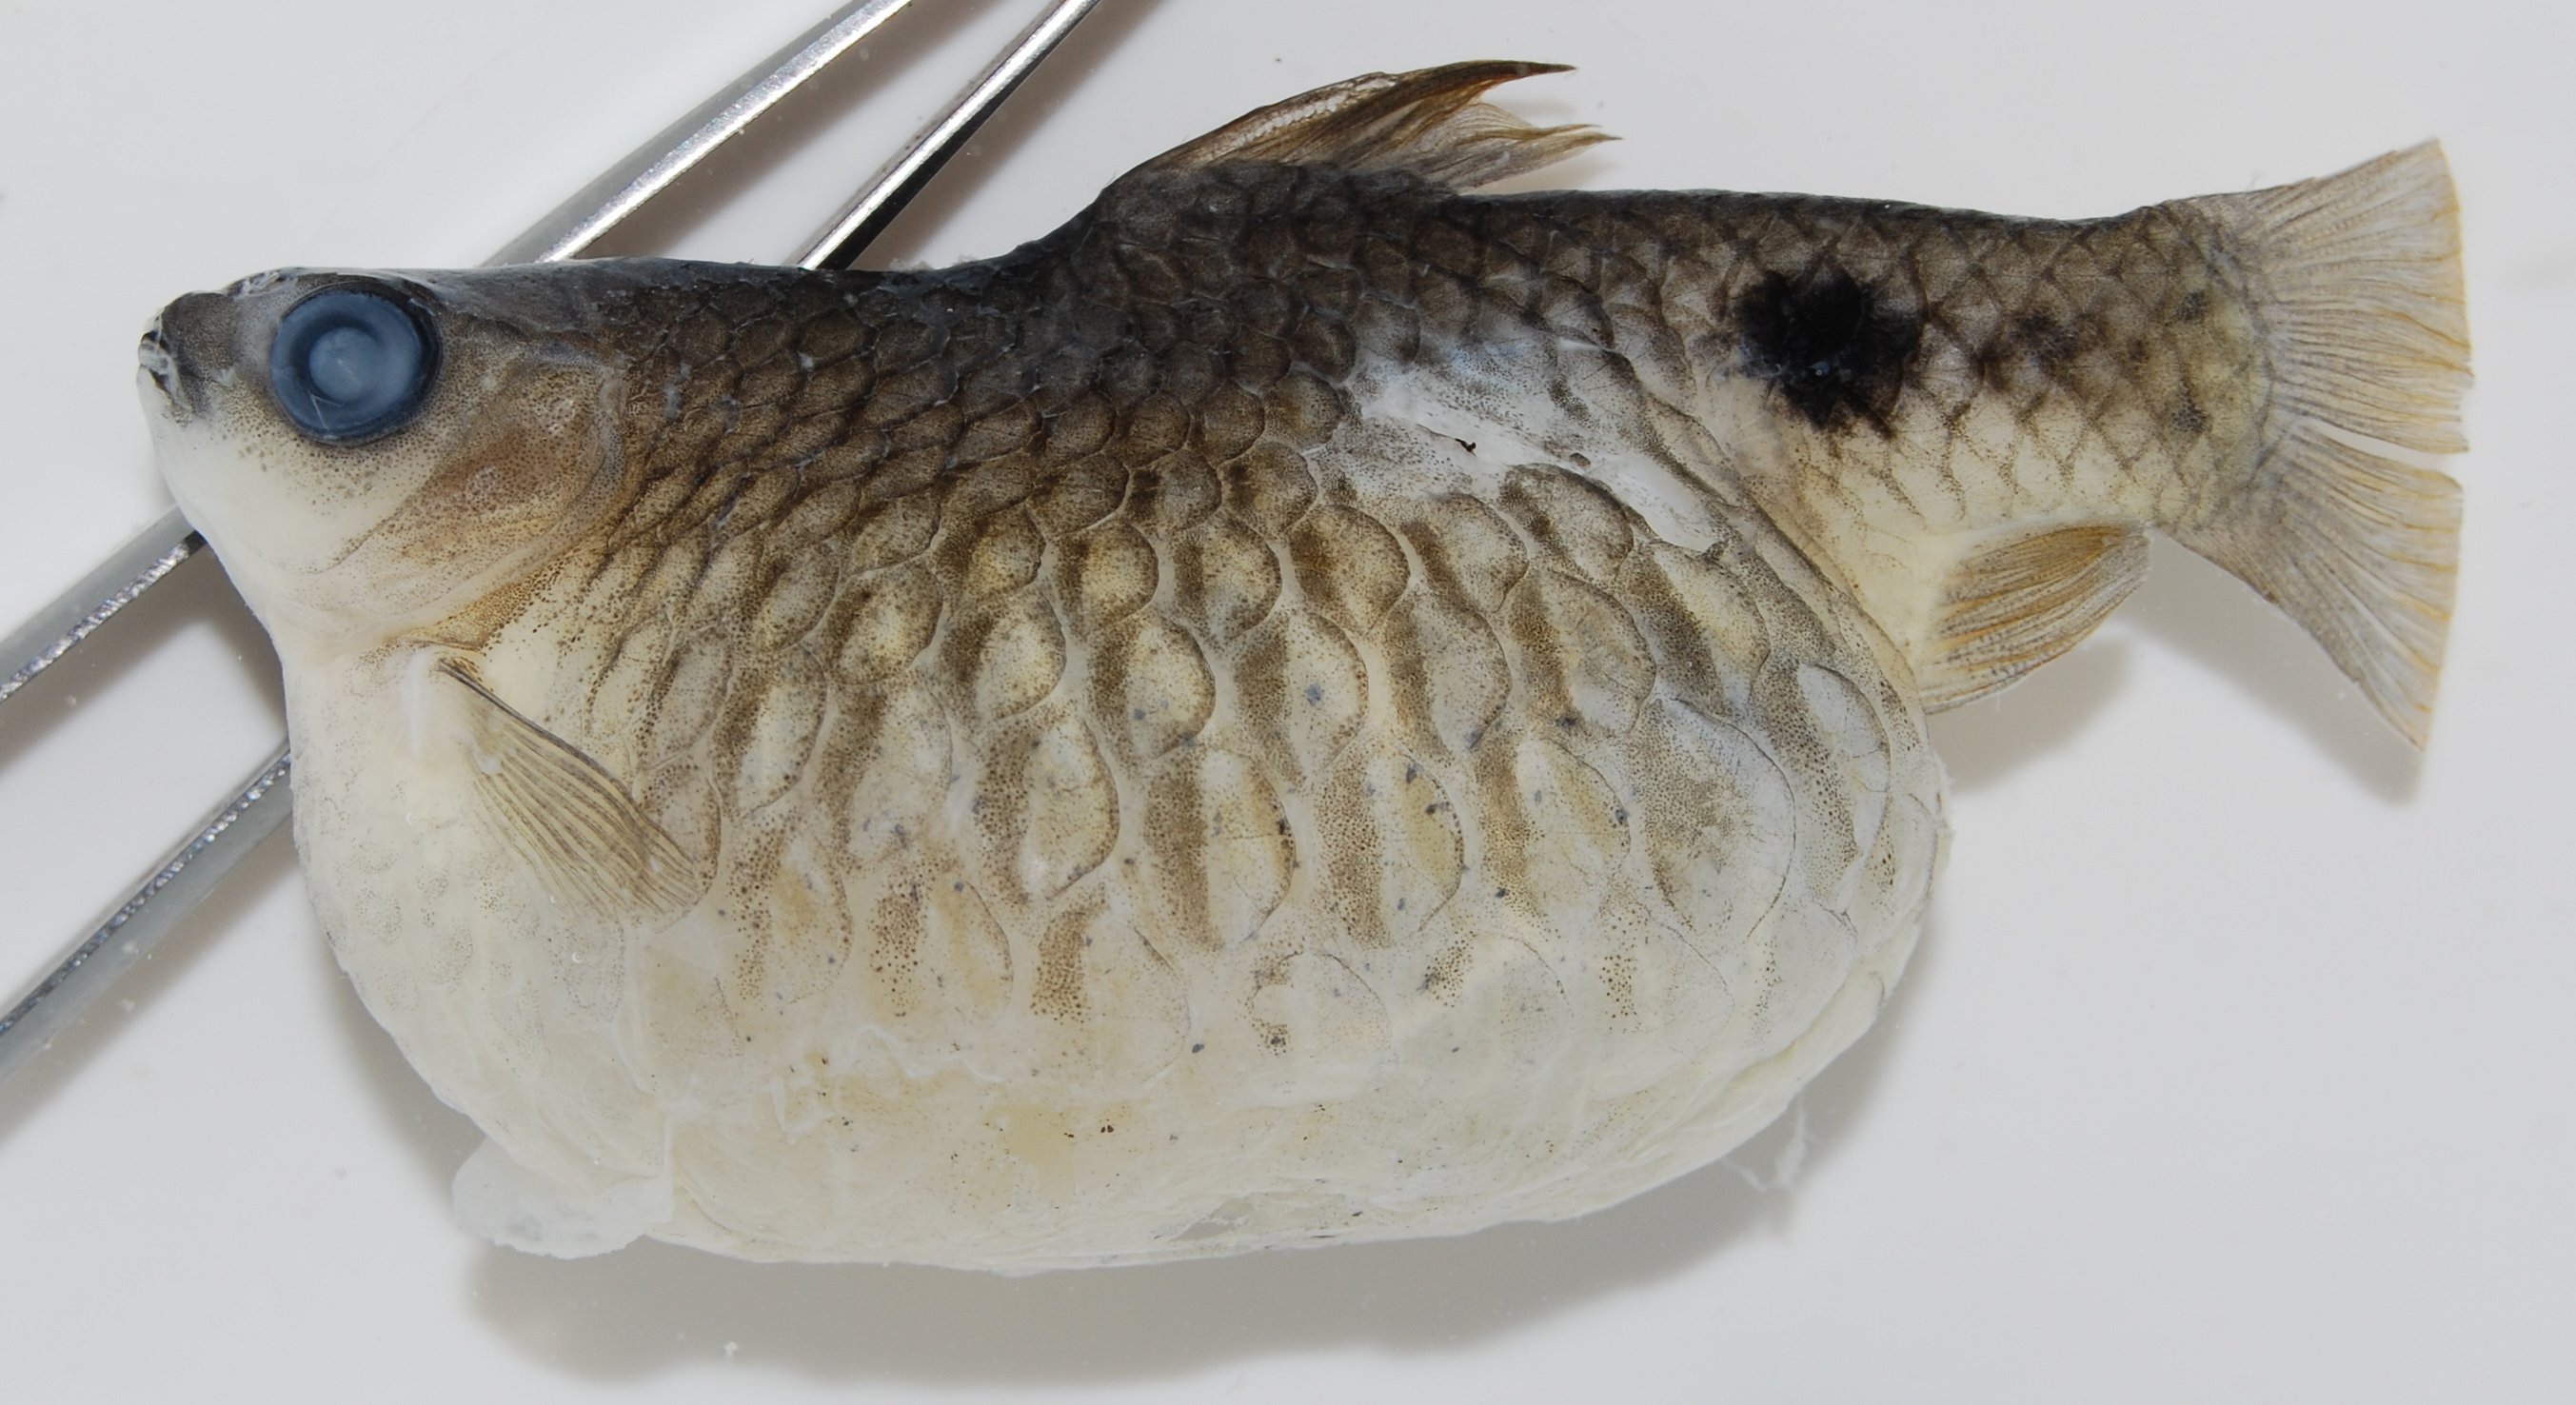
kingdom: Animalia
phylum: Chordata
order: Cypriniformes
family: Cyprinidae
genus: Pethia
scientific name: Pethia padamya
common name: Odessa barb
